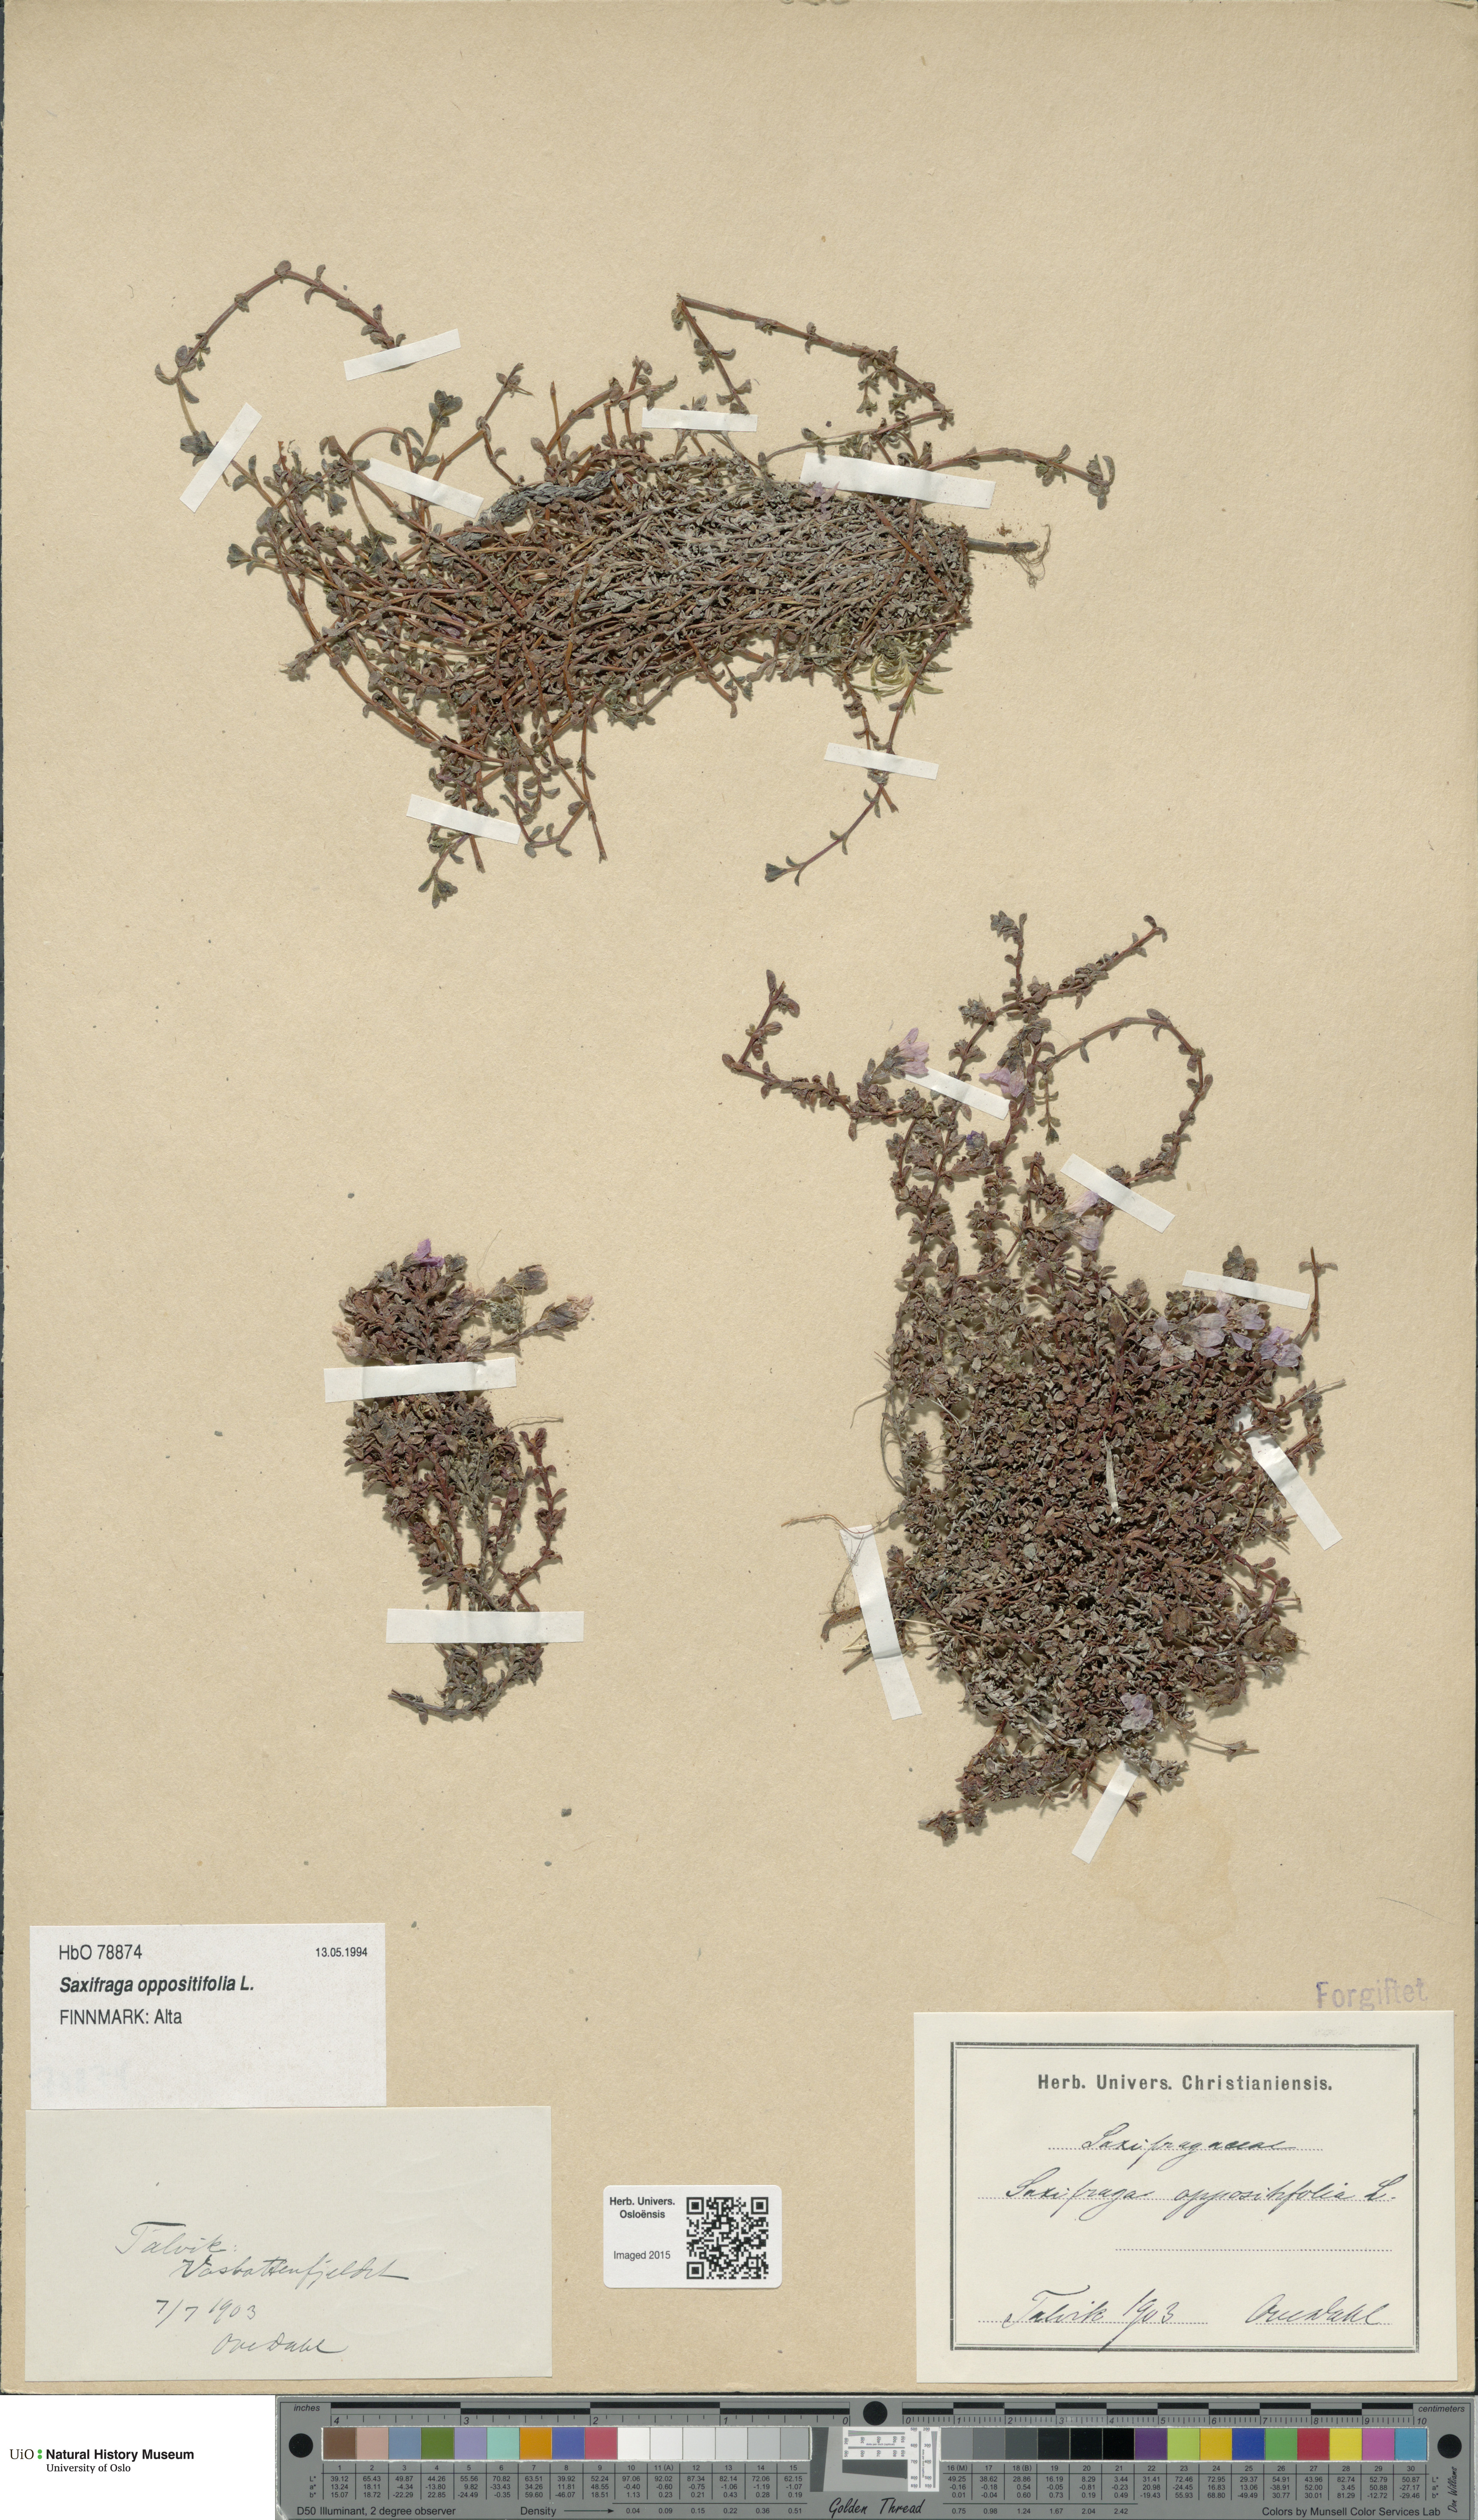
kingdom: Plantae
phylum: Tracheophyta
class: Magnoliopsida
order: Saxifragales
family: Saxifragaceae
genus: Saxifraga
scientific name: Saxifraga oppositifolia
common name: Purple saxifrage
